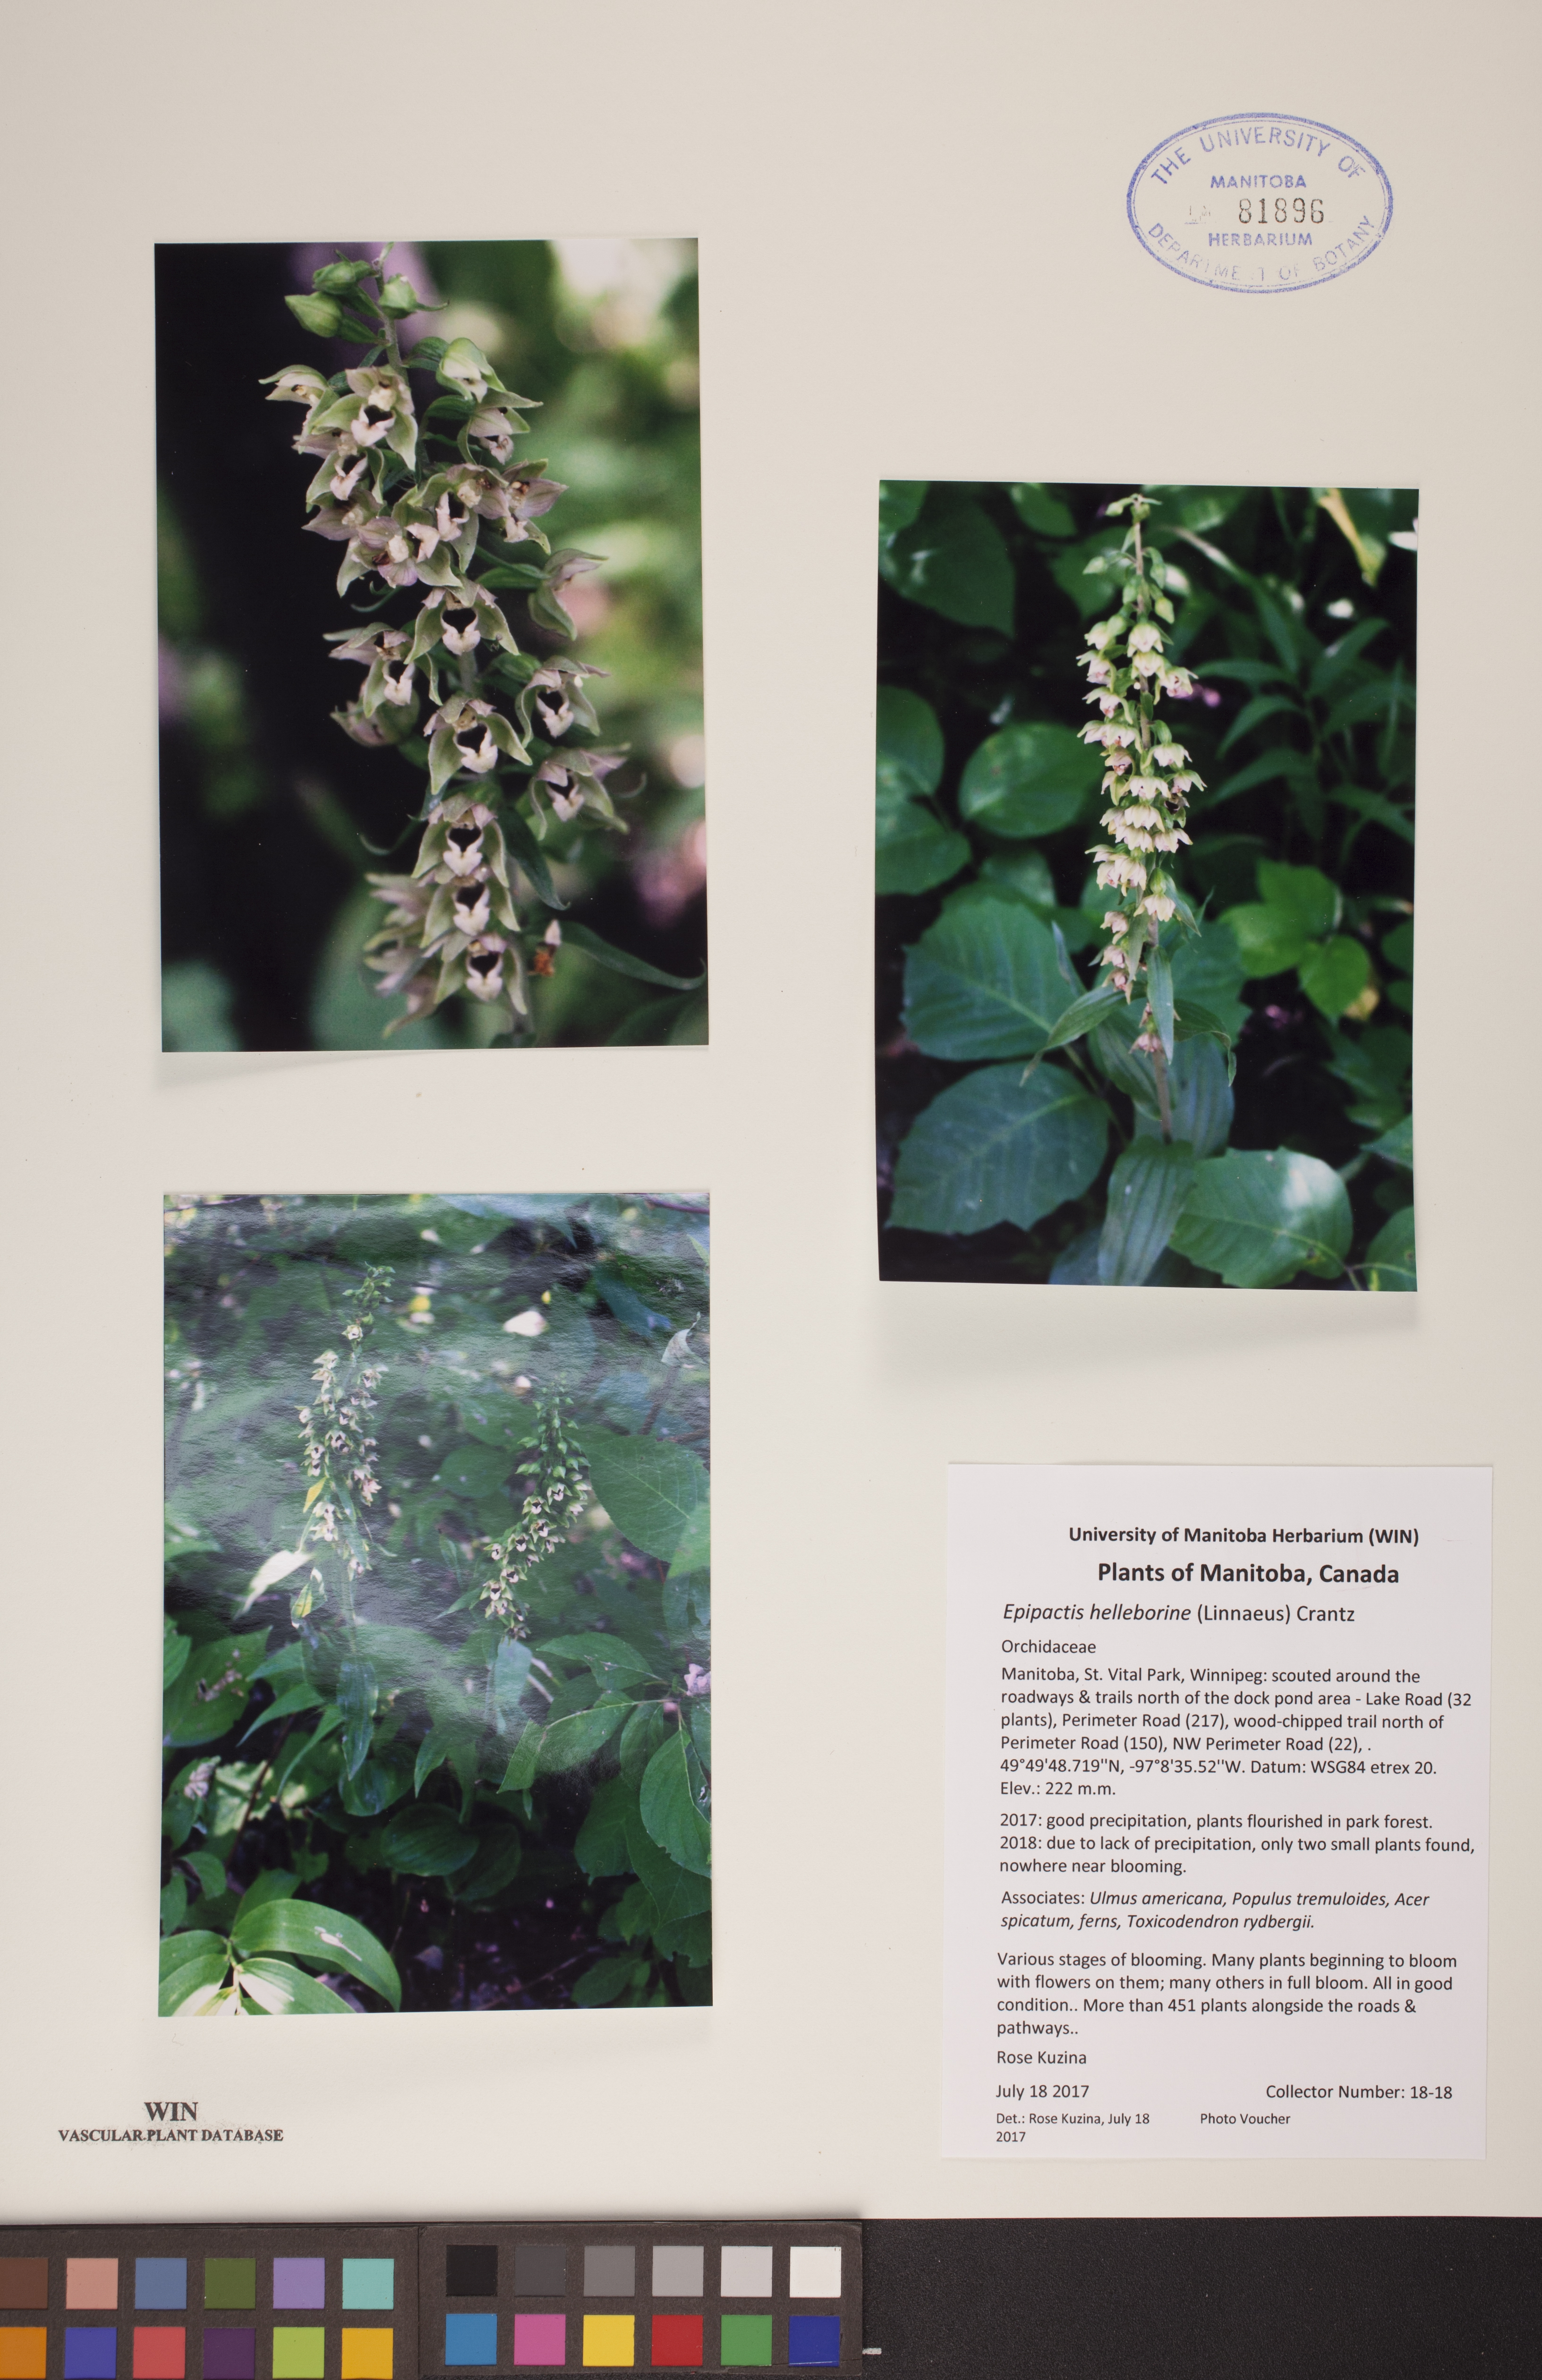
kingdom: Plantae
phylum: Tracheophyta
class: Liliopsida
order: Asparagales
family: Orchidaceae
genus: Epipactis
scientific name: Epipactis helleborine
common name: Broad-leaved helleborine
